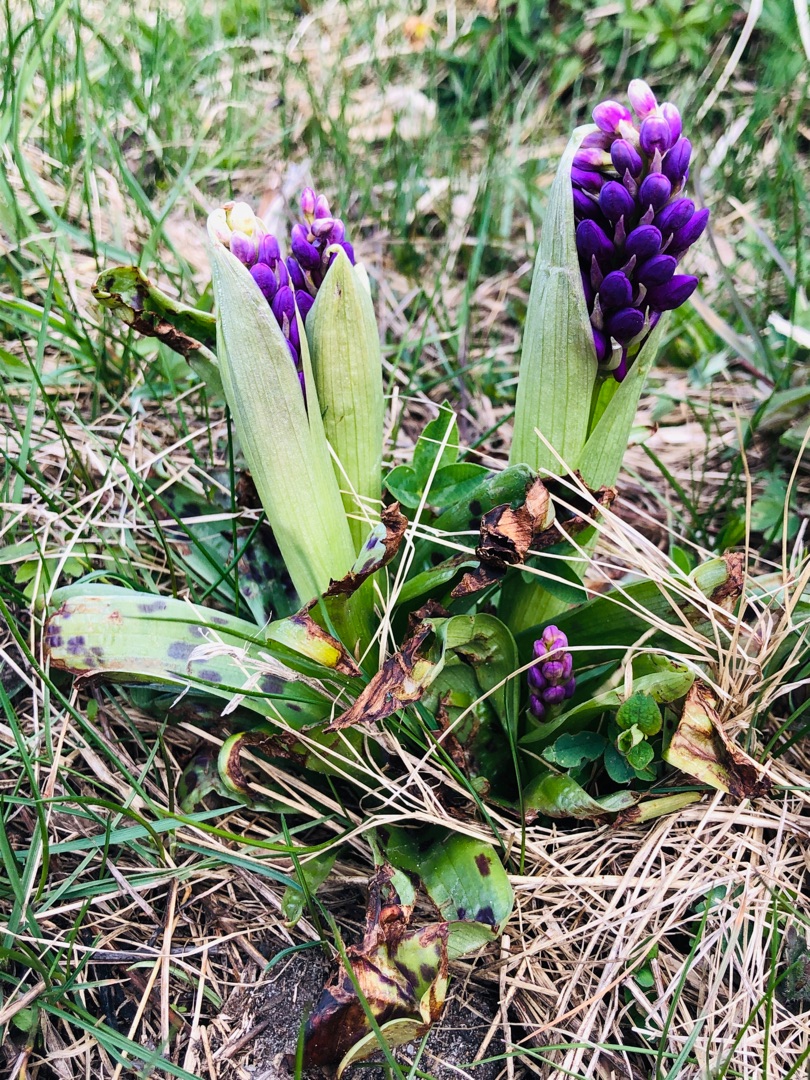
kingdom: Plantae
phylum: Tracheophyta
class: Liliopsida
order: Asparagales
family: Orchidaceae
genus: Orchis
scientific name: Orchis mascula
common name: Tyndakset gøgeurt
